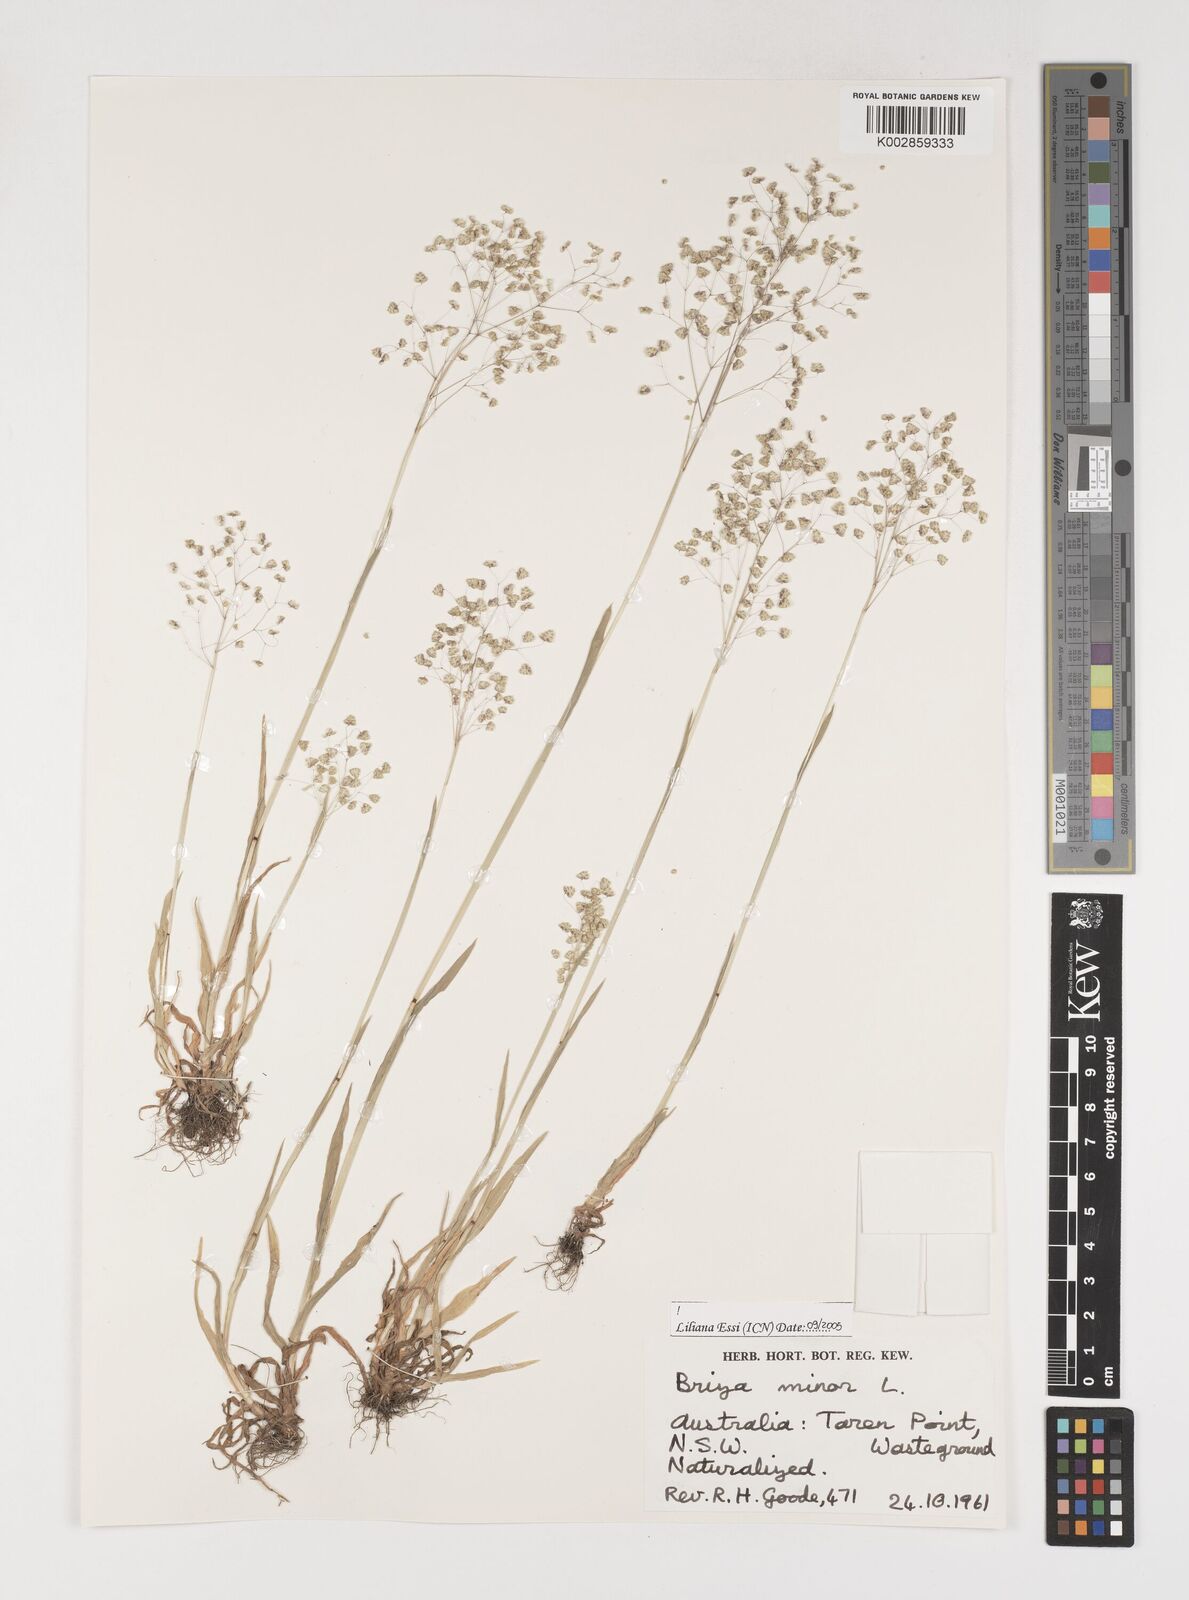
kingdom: Plantae
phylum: Tracheophyta
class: Liliopsida
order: Poales
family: Poaceae
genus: Briza
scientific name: Briza minor
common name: Lesser quaking-grass
